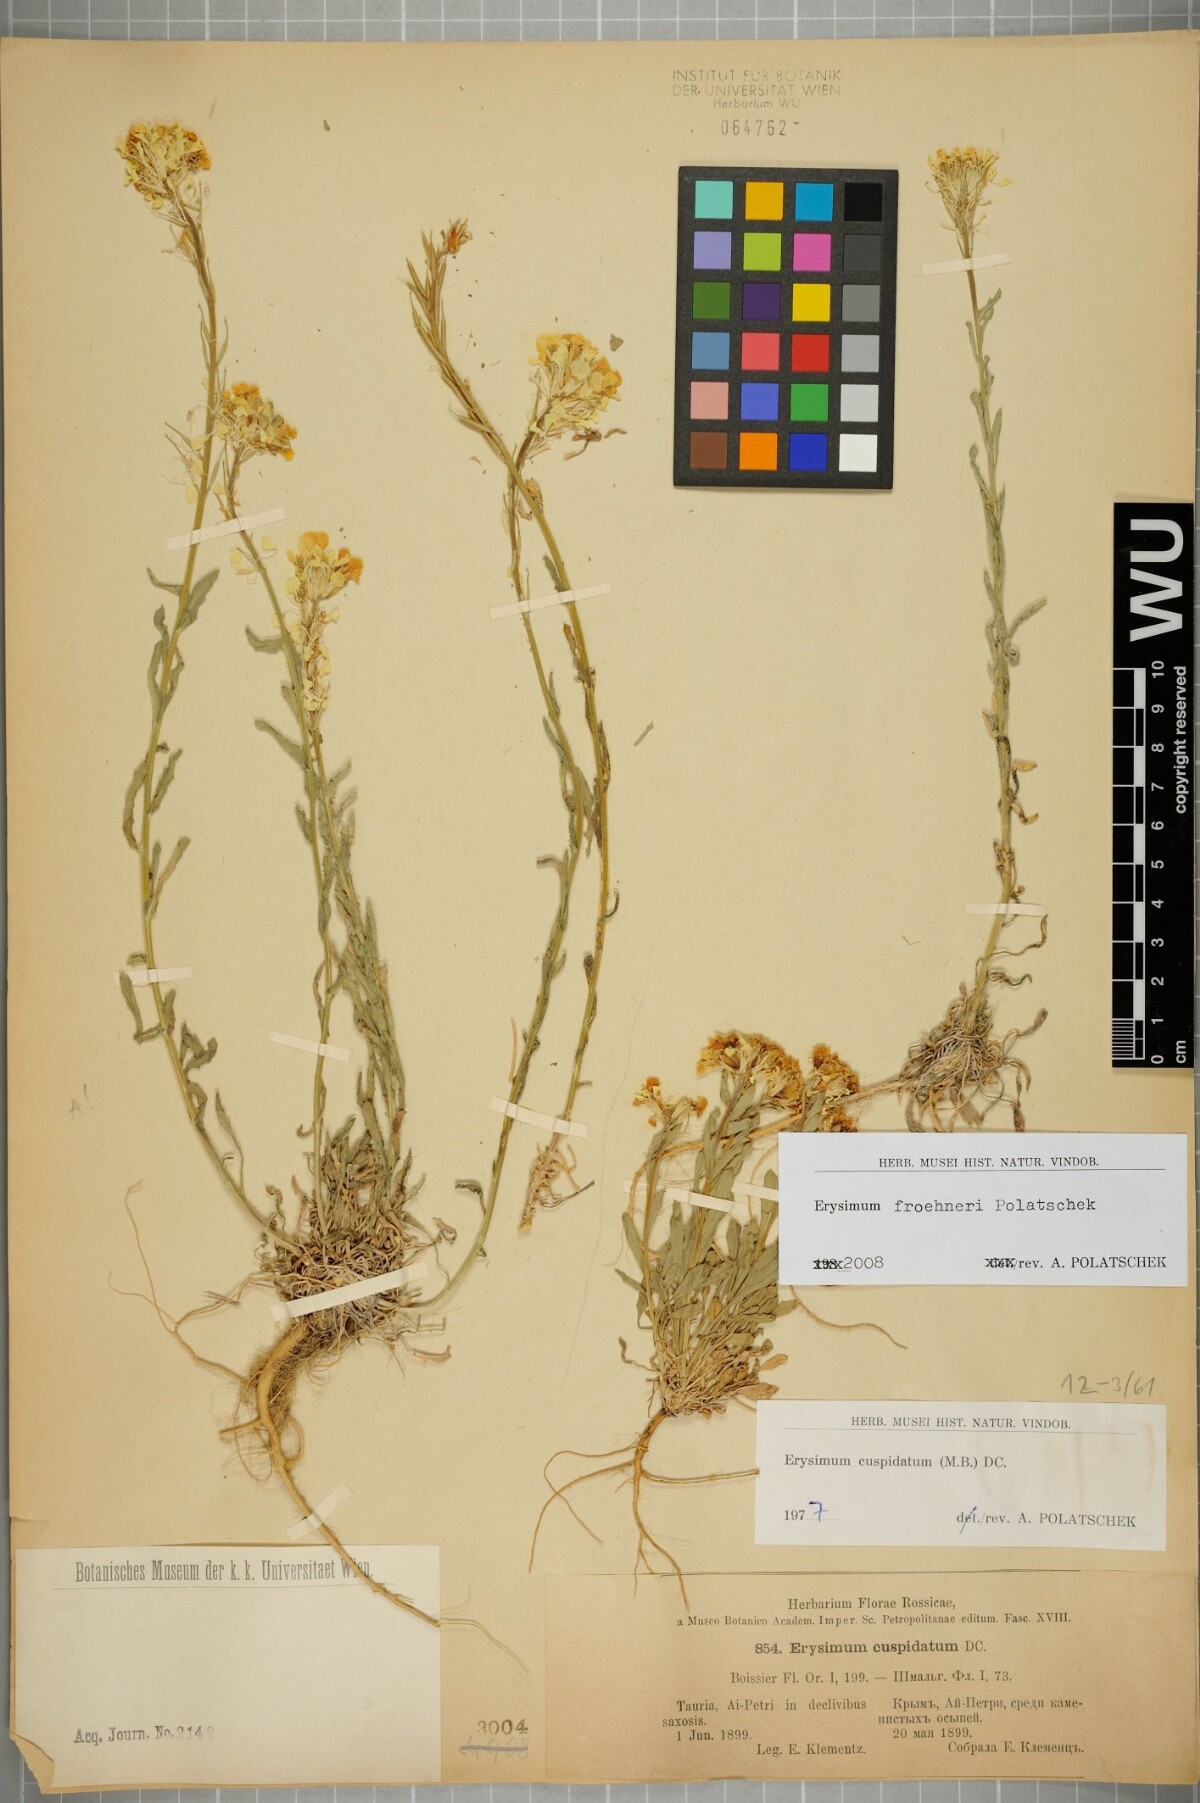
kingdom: Plantae
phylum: Tracheophyta
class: Magnoliopsida
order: Brassicales
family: Brassicaceae
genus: Erysimum
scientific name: Erysimum froehneri
